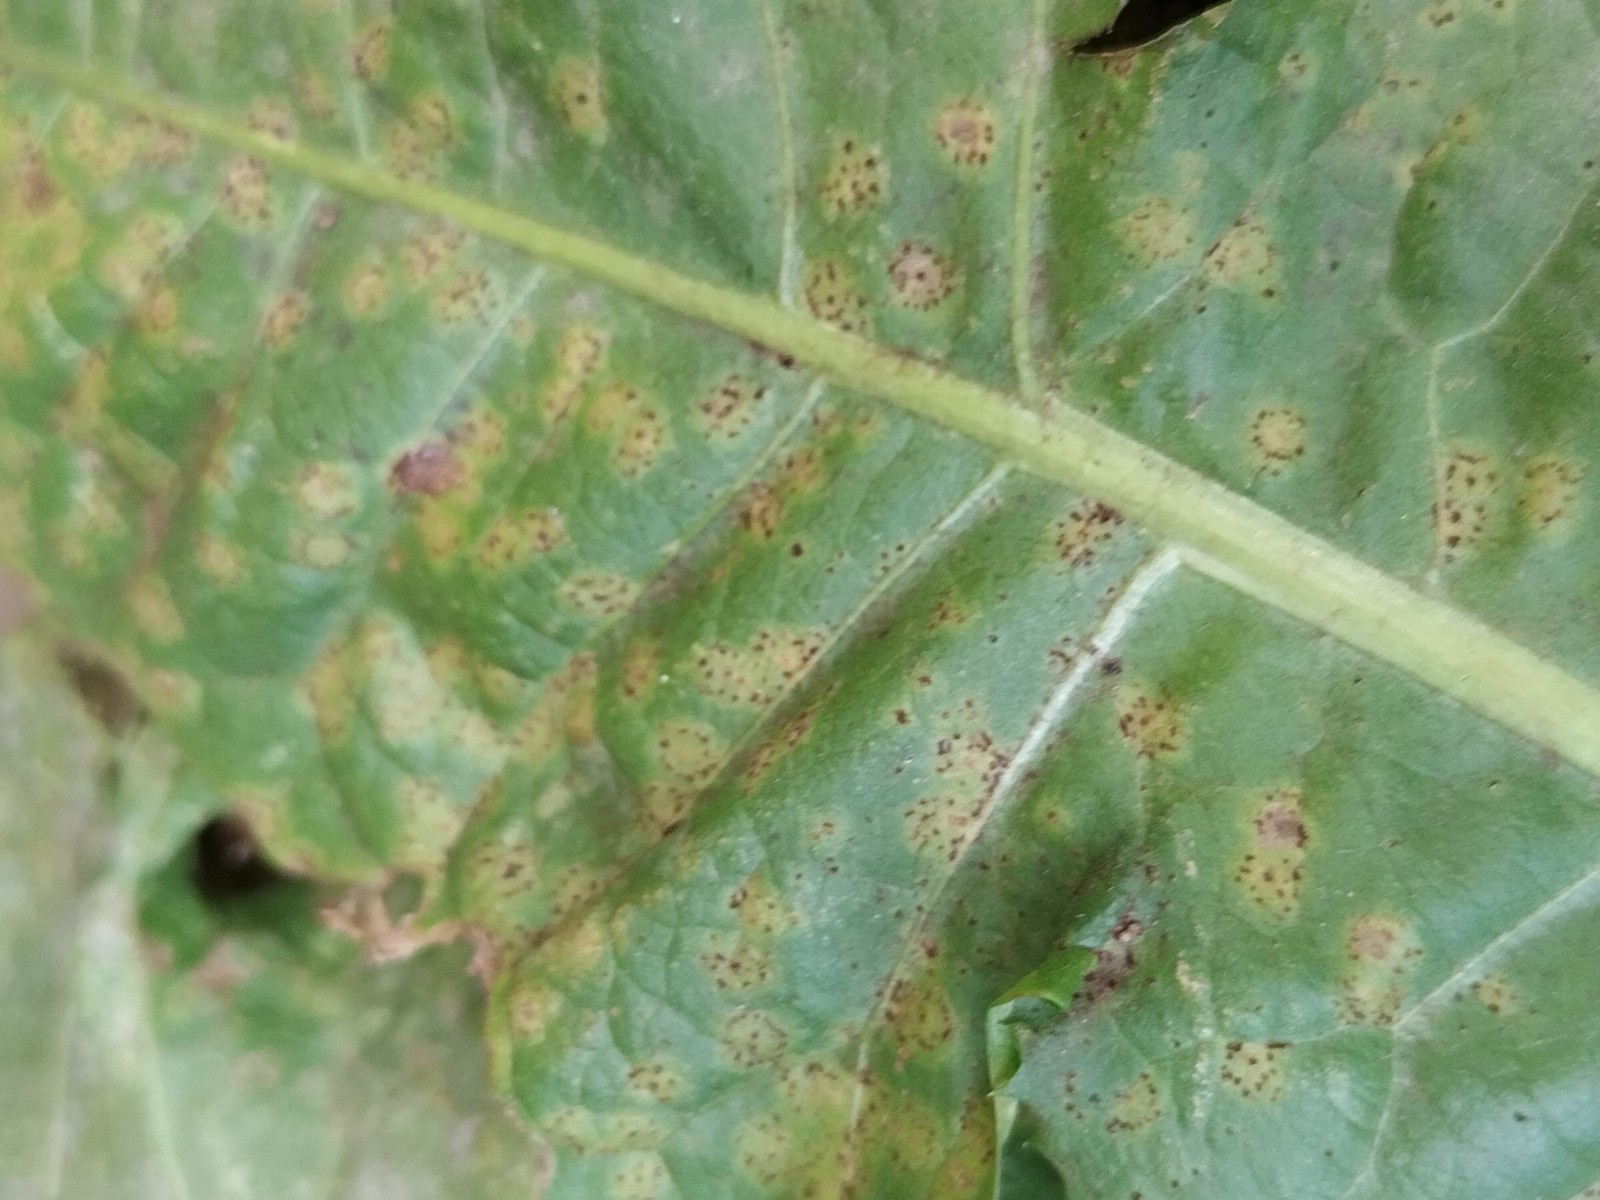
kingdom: Fungi
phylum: Basidiomycota
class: Pucciniomycetes
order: Pucciniales
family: Pucciniaceae
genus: Puccinia
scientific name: Puccinia hieracii
